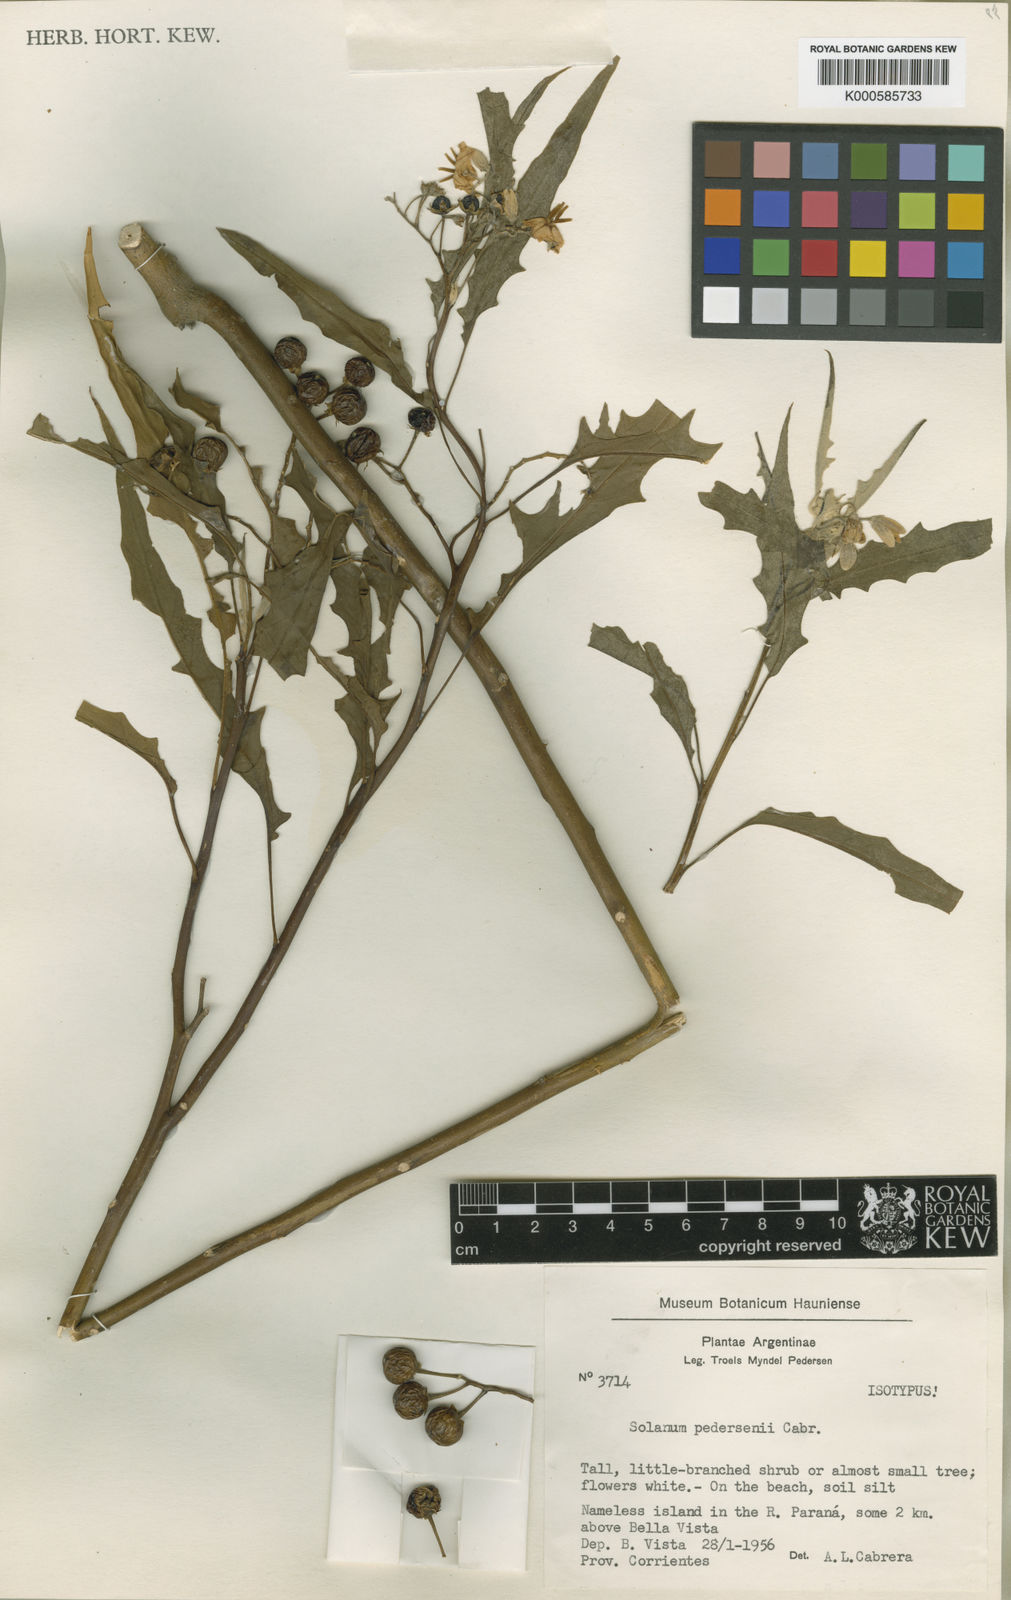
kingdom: Plantae
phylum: Tracheophyta
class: Magnoliopsida
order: Solanales
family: Solanaceae
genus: Solanum
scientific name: Solanum pedersenii
